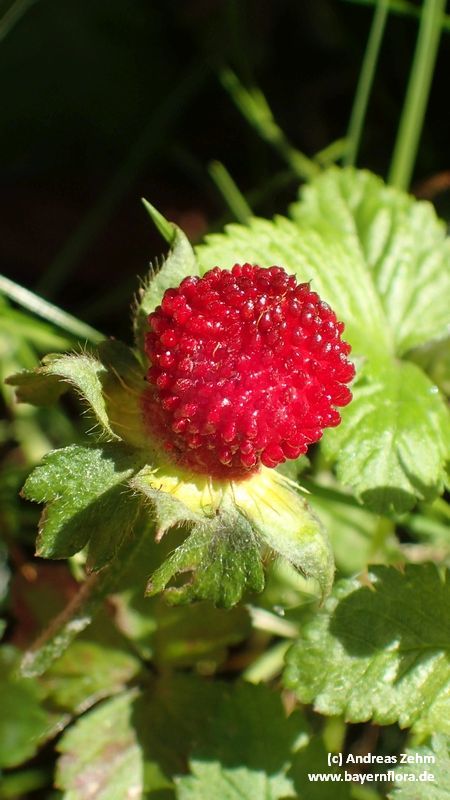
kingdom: Plantae
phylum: Tracheophyta
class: Magnoliopsida
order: Rosales
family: Rosaceae
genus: Potentilla
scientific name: Potentilla indica
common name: Yellow-flowered strawberry
